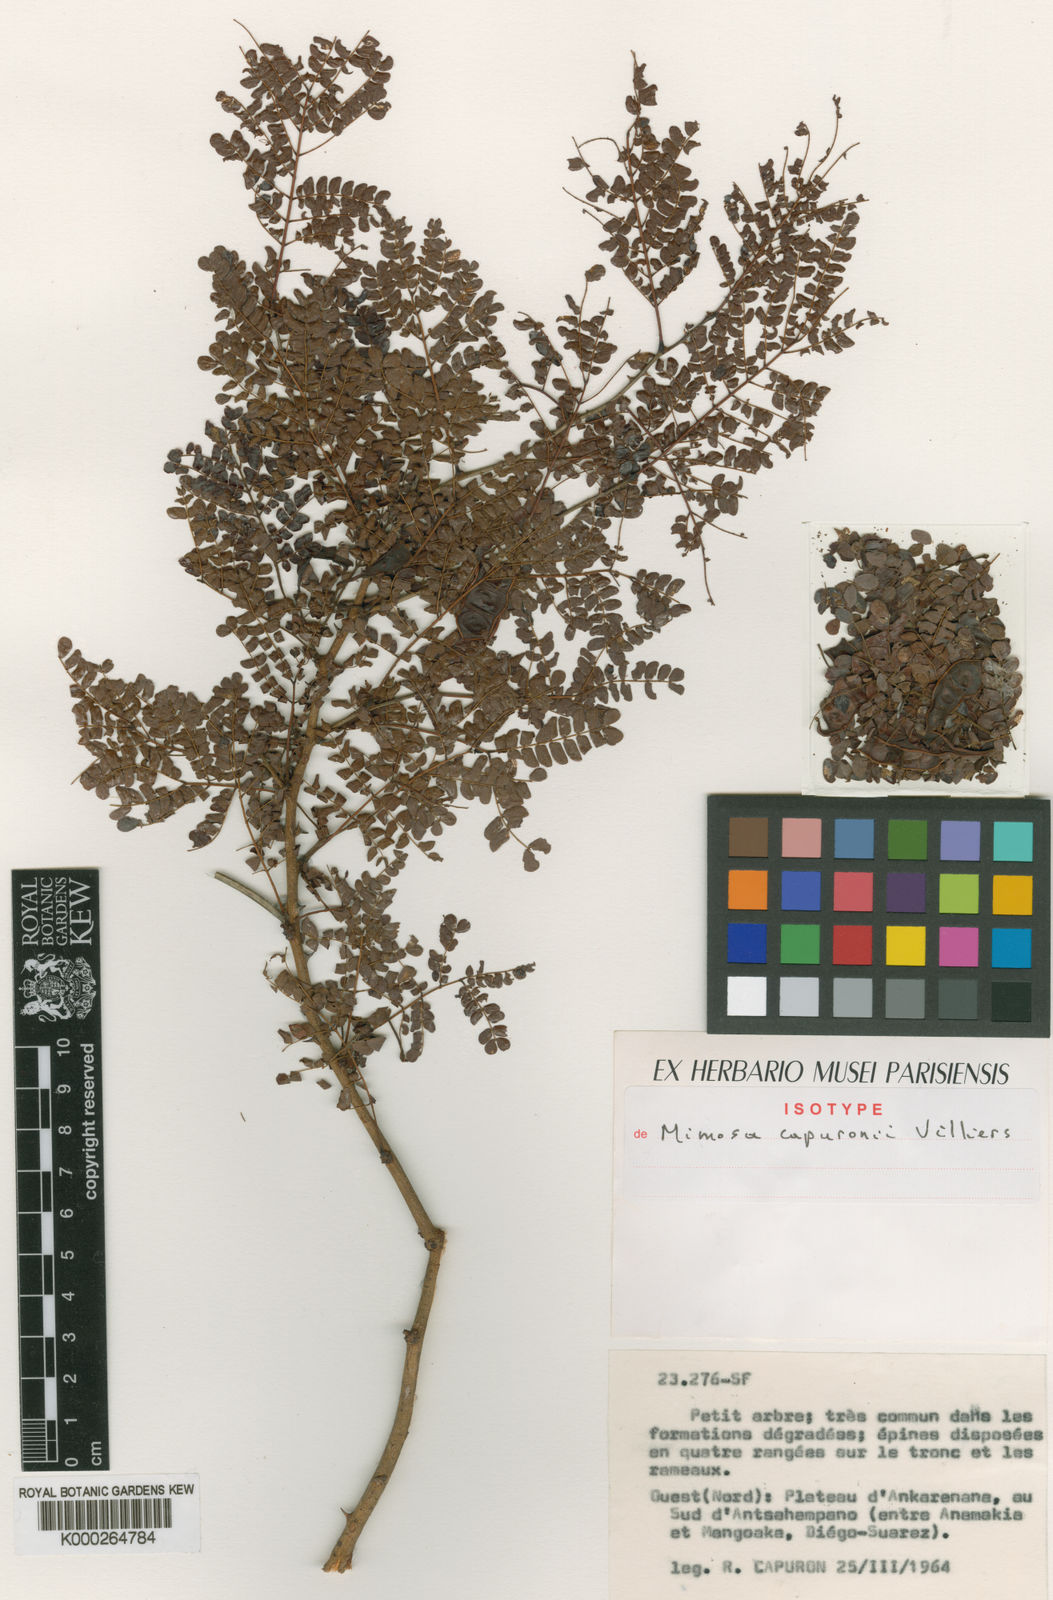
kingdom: Plantae
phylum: Tracheophyta
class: Magnoliopsida
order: Fabales
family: Fabaceae
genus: Mimosa
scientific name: Mimosa capuronii
